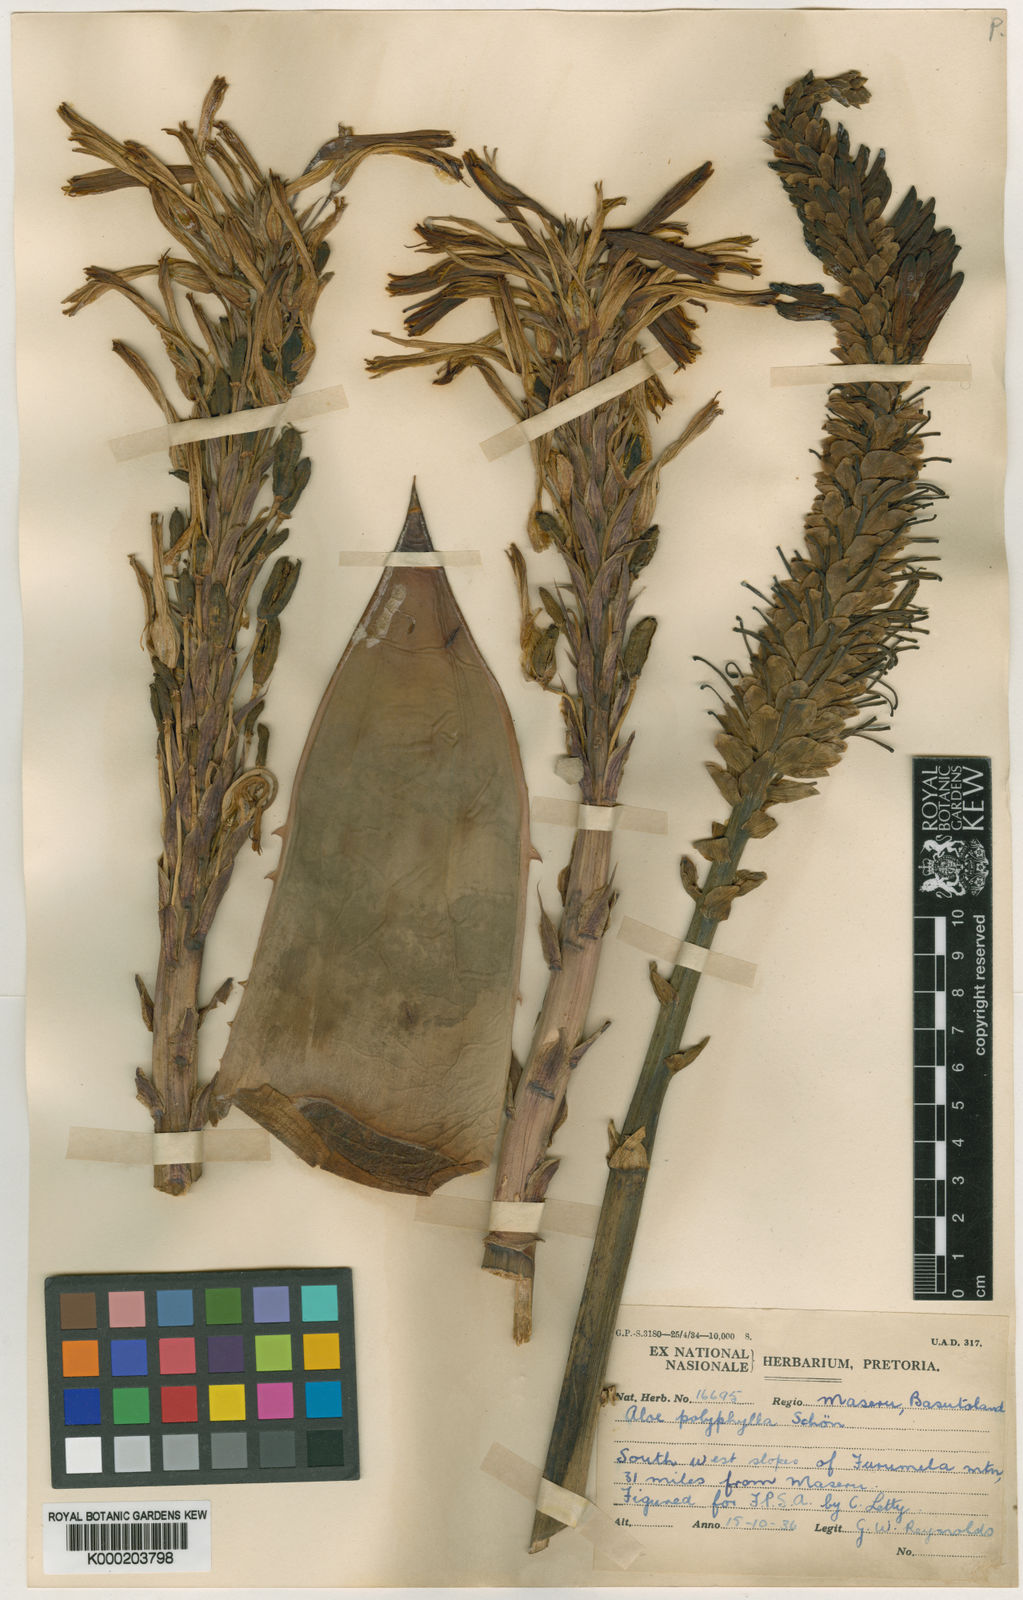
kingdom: Plantae
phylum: Tracheophyta
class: Liliopsida
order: Asparagales
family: Asphodelaceae
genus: Aloe
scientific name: Aloe polyphylla
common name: Basotoland aloe
